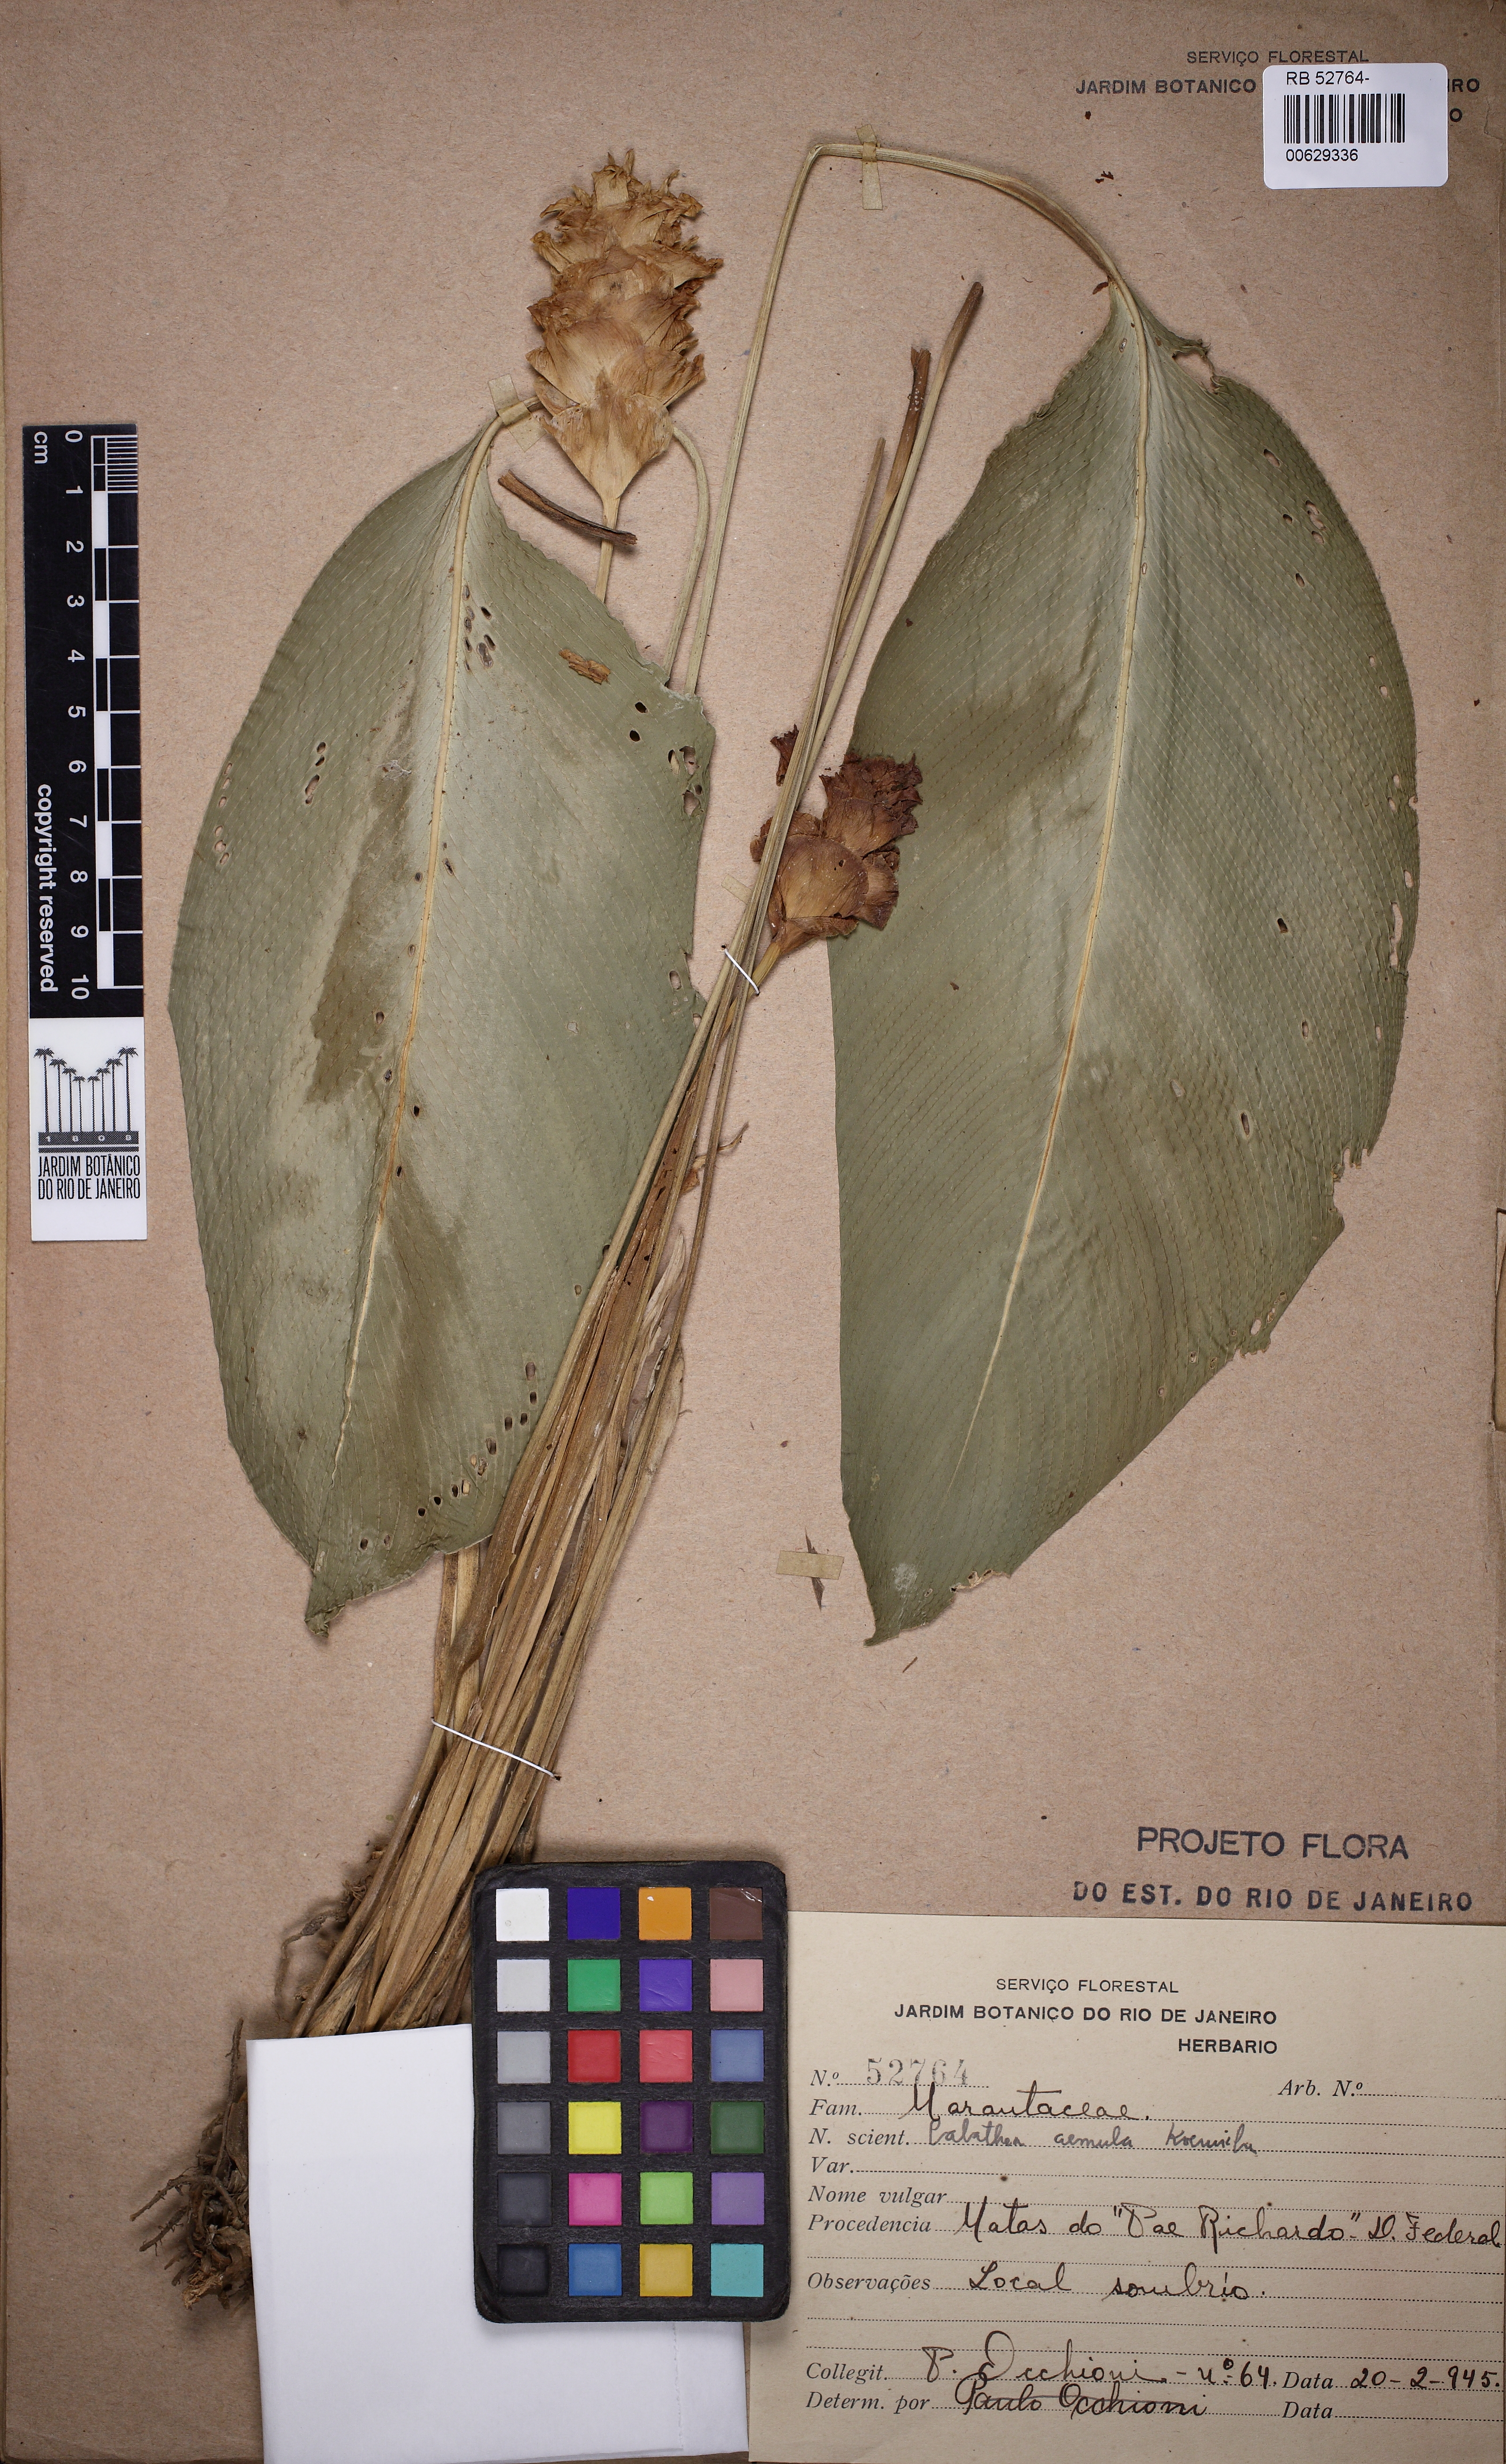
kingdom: Plantae
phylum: Tracheophyta
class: Liliopsida
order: Zingiberales
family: Marantaceae
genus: Goeppertia
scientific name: Goeppertia aemula
